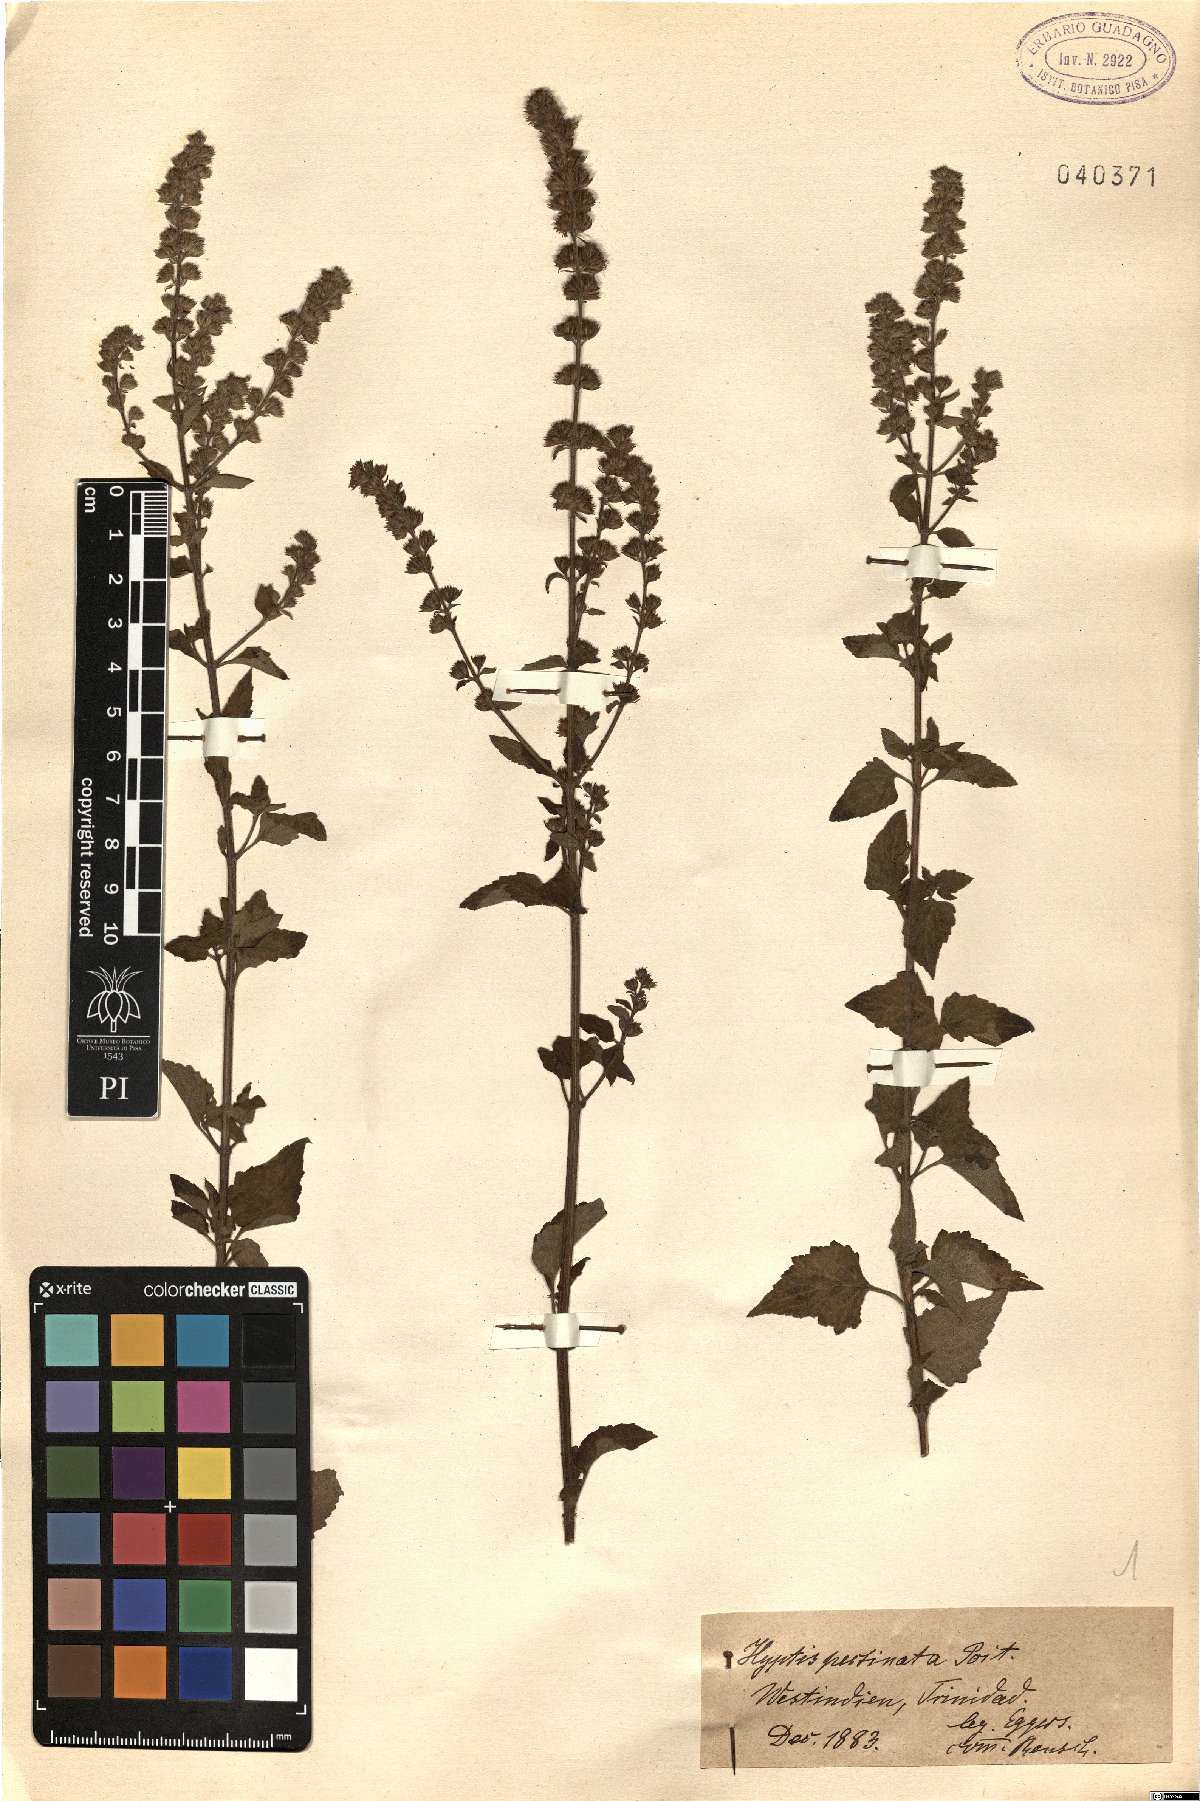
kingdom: Plantae
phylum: Tracheophyta
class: Magnoliopsida
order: Lamiales
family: Lamiaceae
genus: Mesosphaerum
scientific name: Mesosphaerum pectinatum
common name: Comb hyptis
